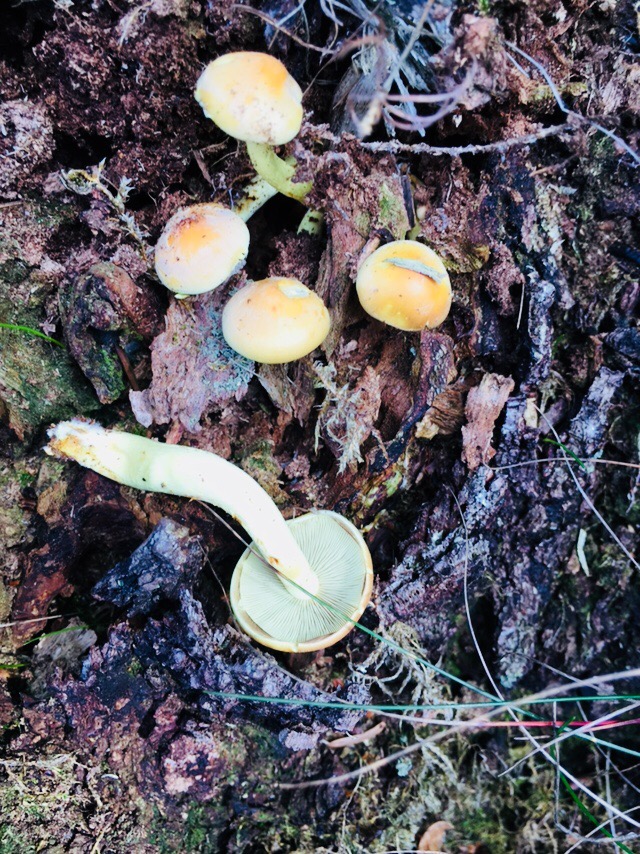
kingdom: Fungi
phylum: Basidiomycota
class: Agaricomycetes
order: Agaricales
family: Strophariaceae
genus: Hypholoma
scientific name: Hypholoma fasciculare
